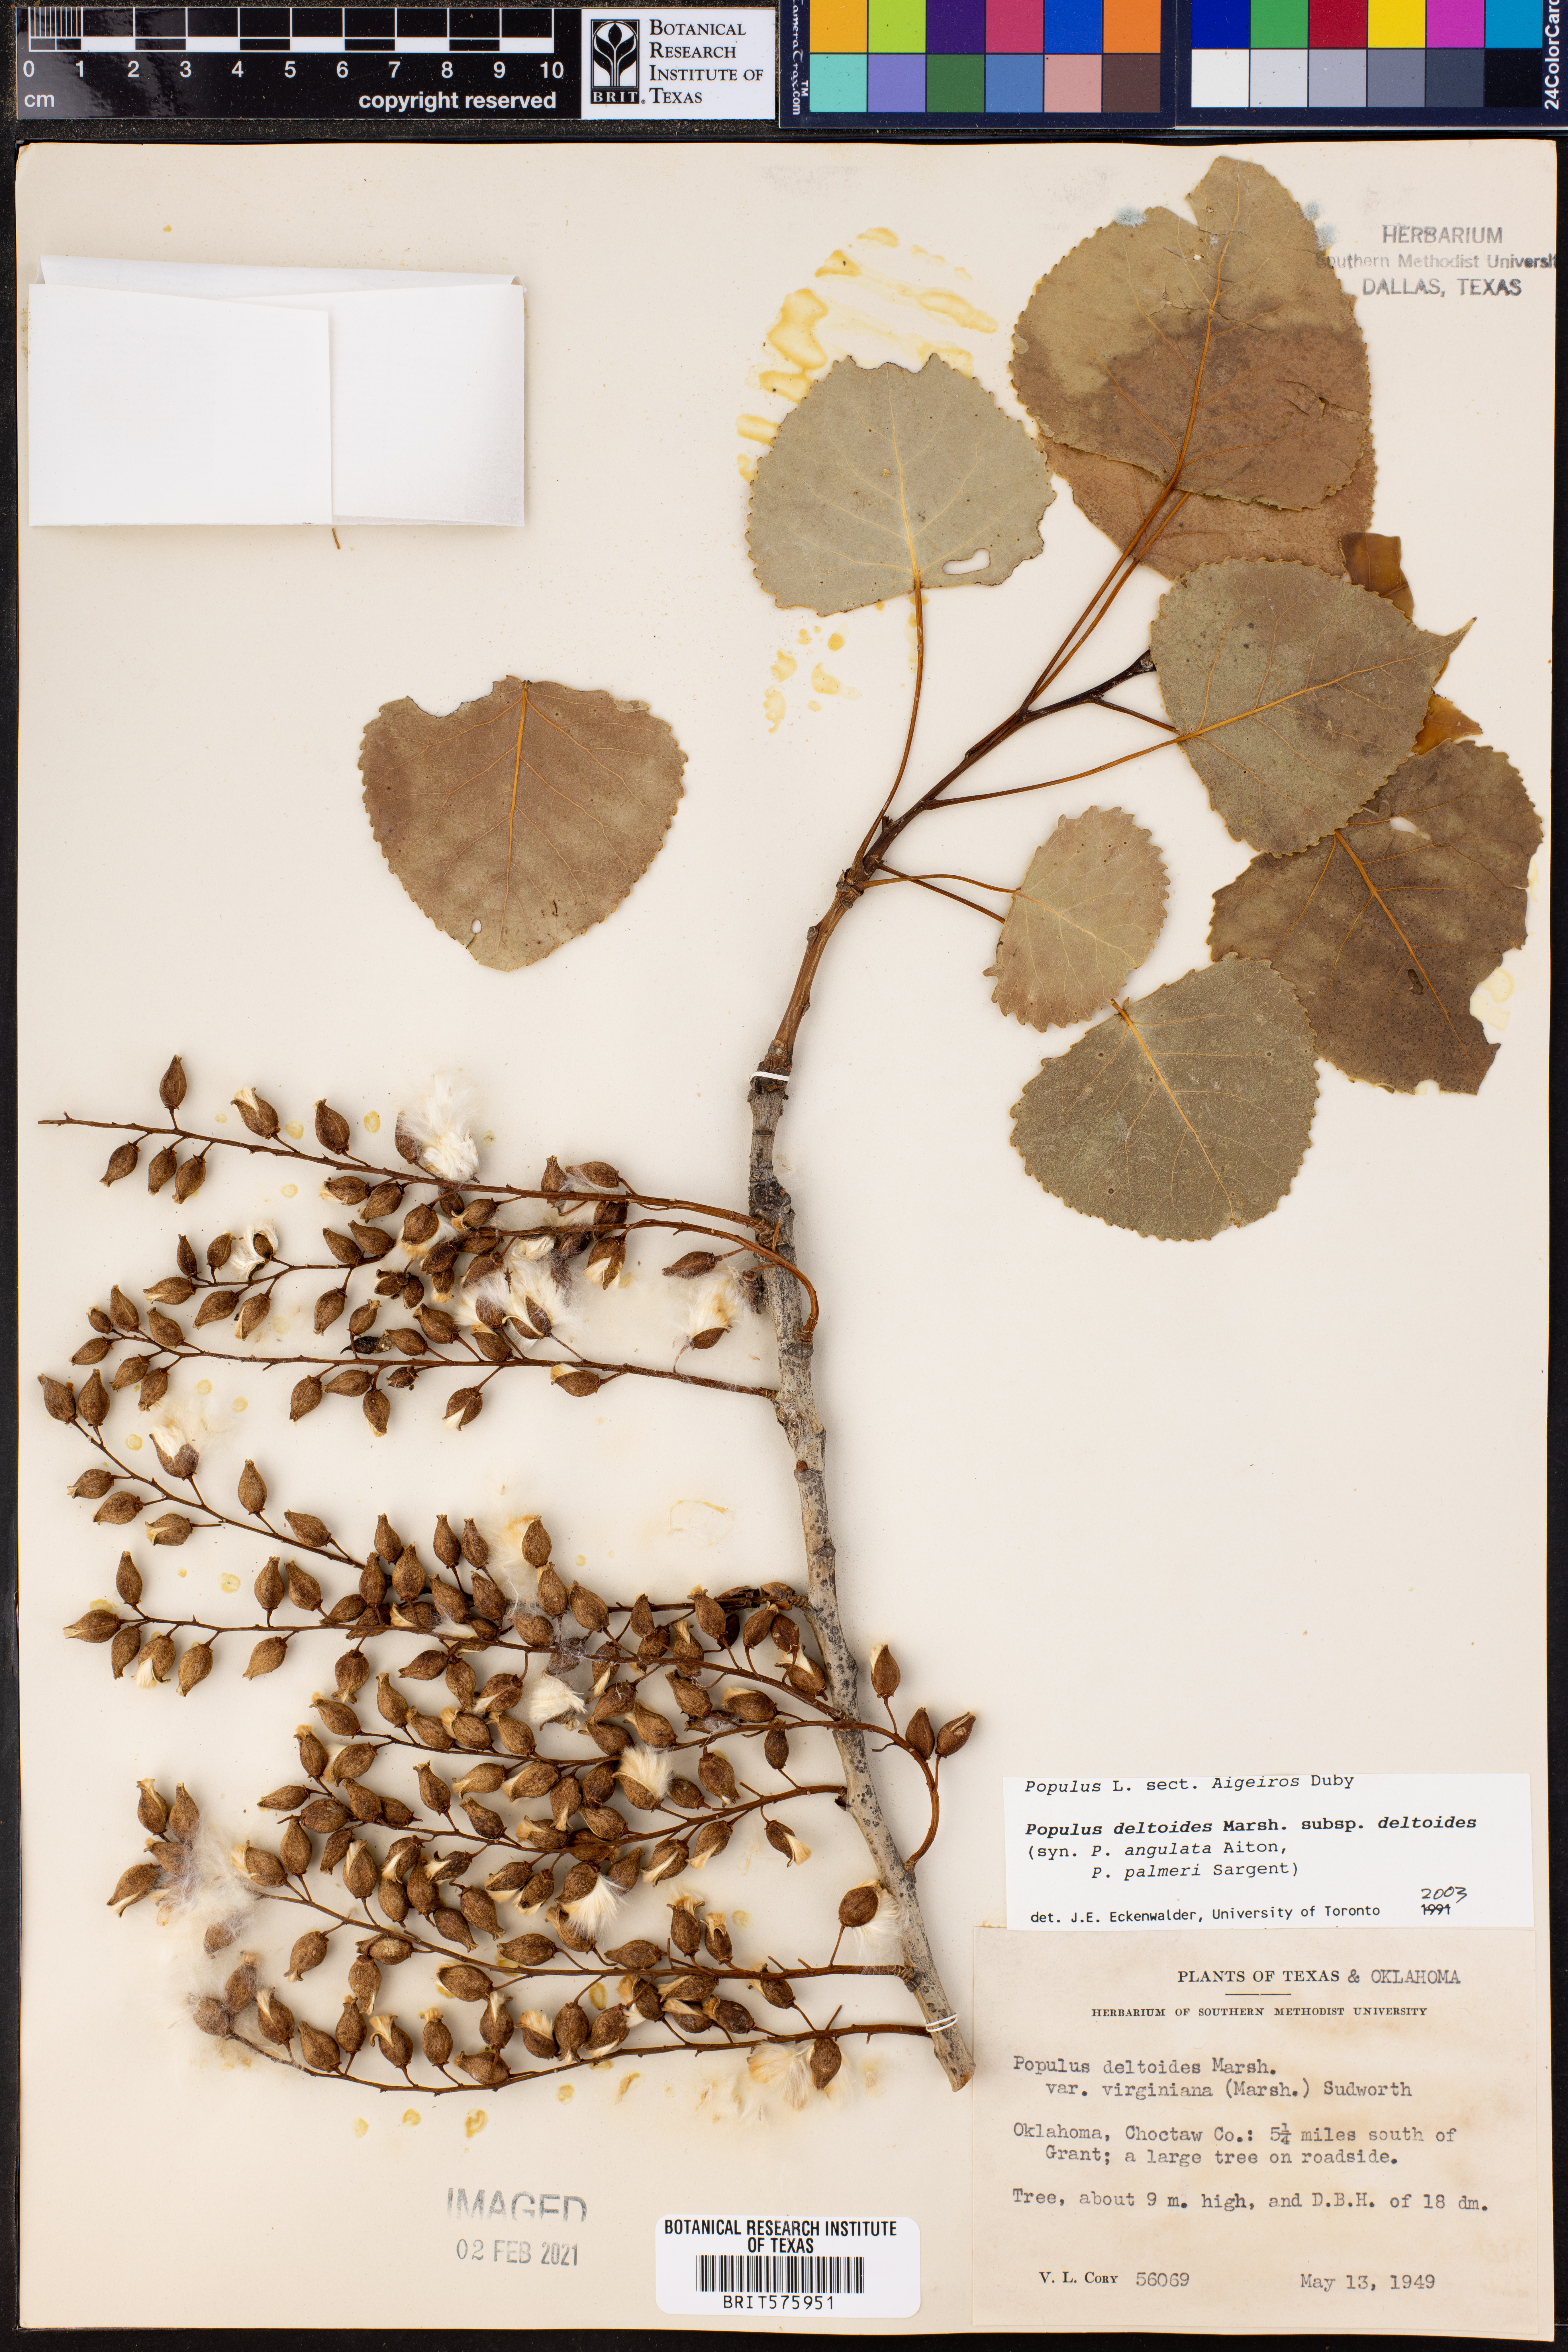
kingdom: Plantae
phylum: Tracheophyta
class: Magnoliopsida
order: Malpighiales
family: Salicaceae
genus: Populus
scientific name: Populus deltoides
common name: Eastern cottonwood
